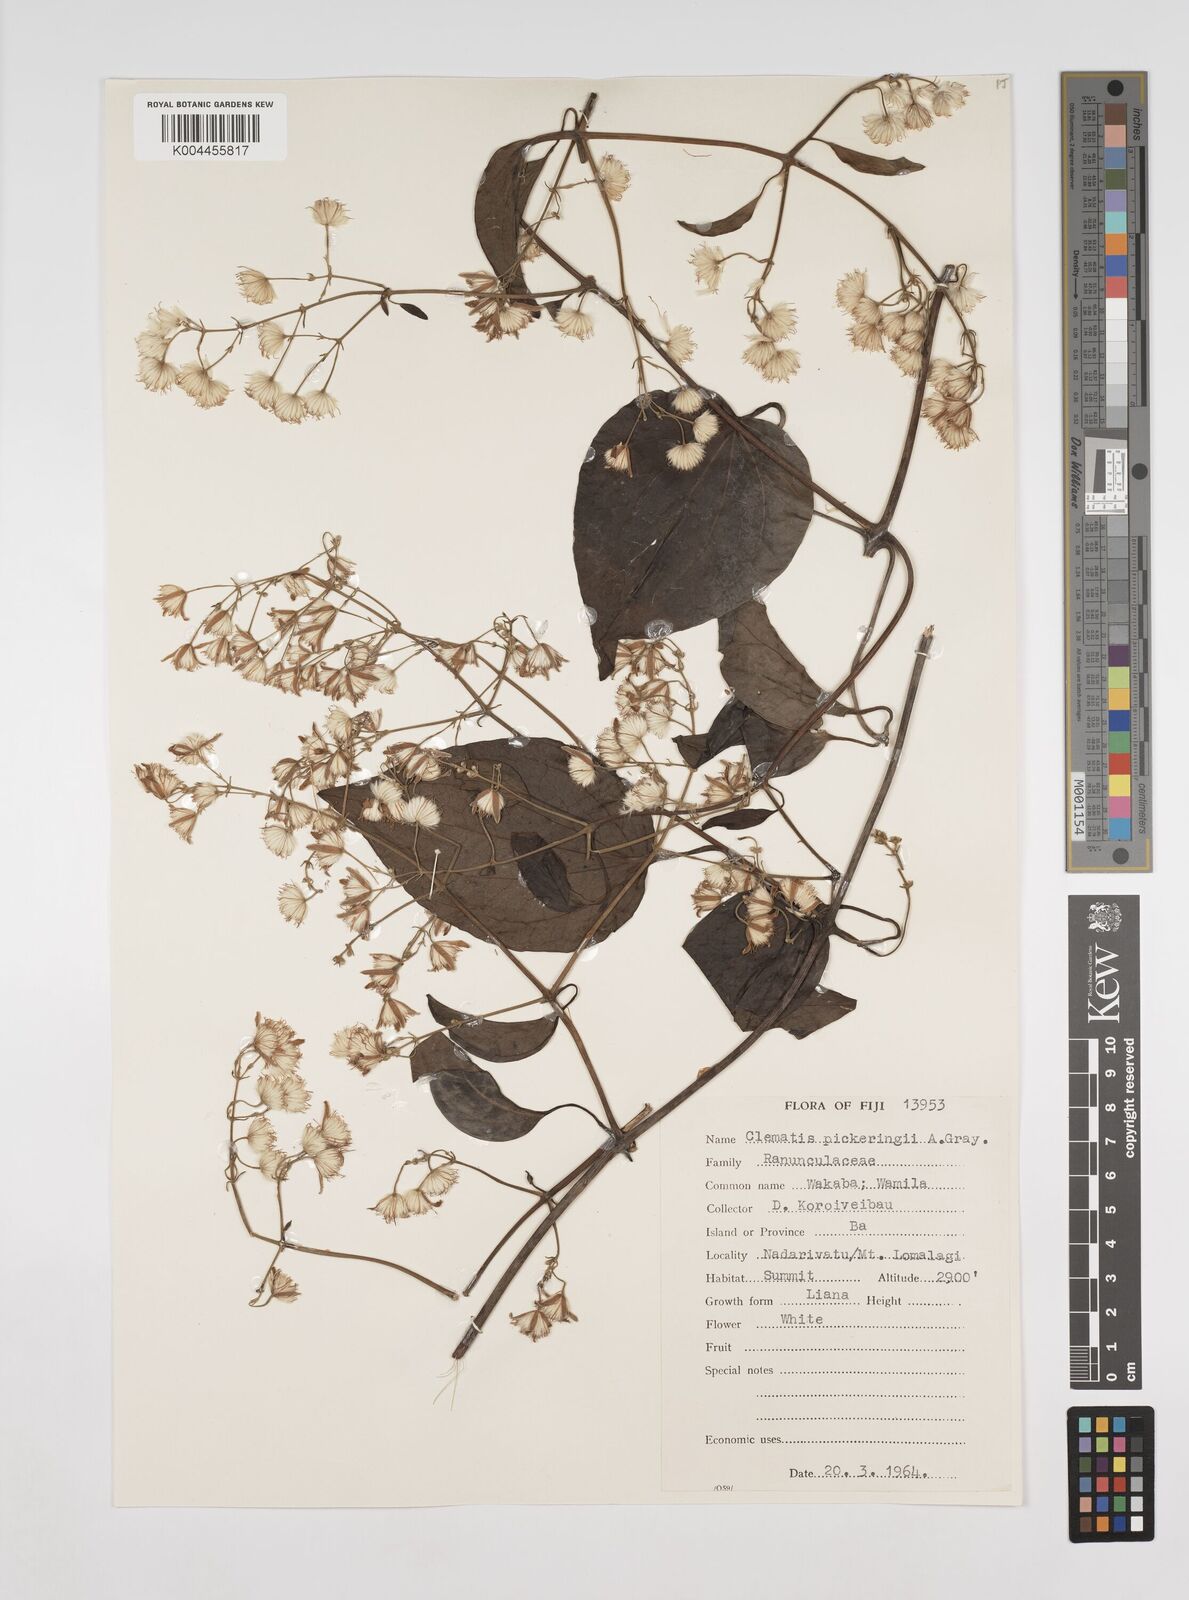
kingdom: Plantae
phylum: Tracheophyta
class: Magnoliopsida
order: Ranunculales
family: Ranunculaceae
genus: Clematis
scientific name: Clematis pickeringii
